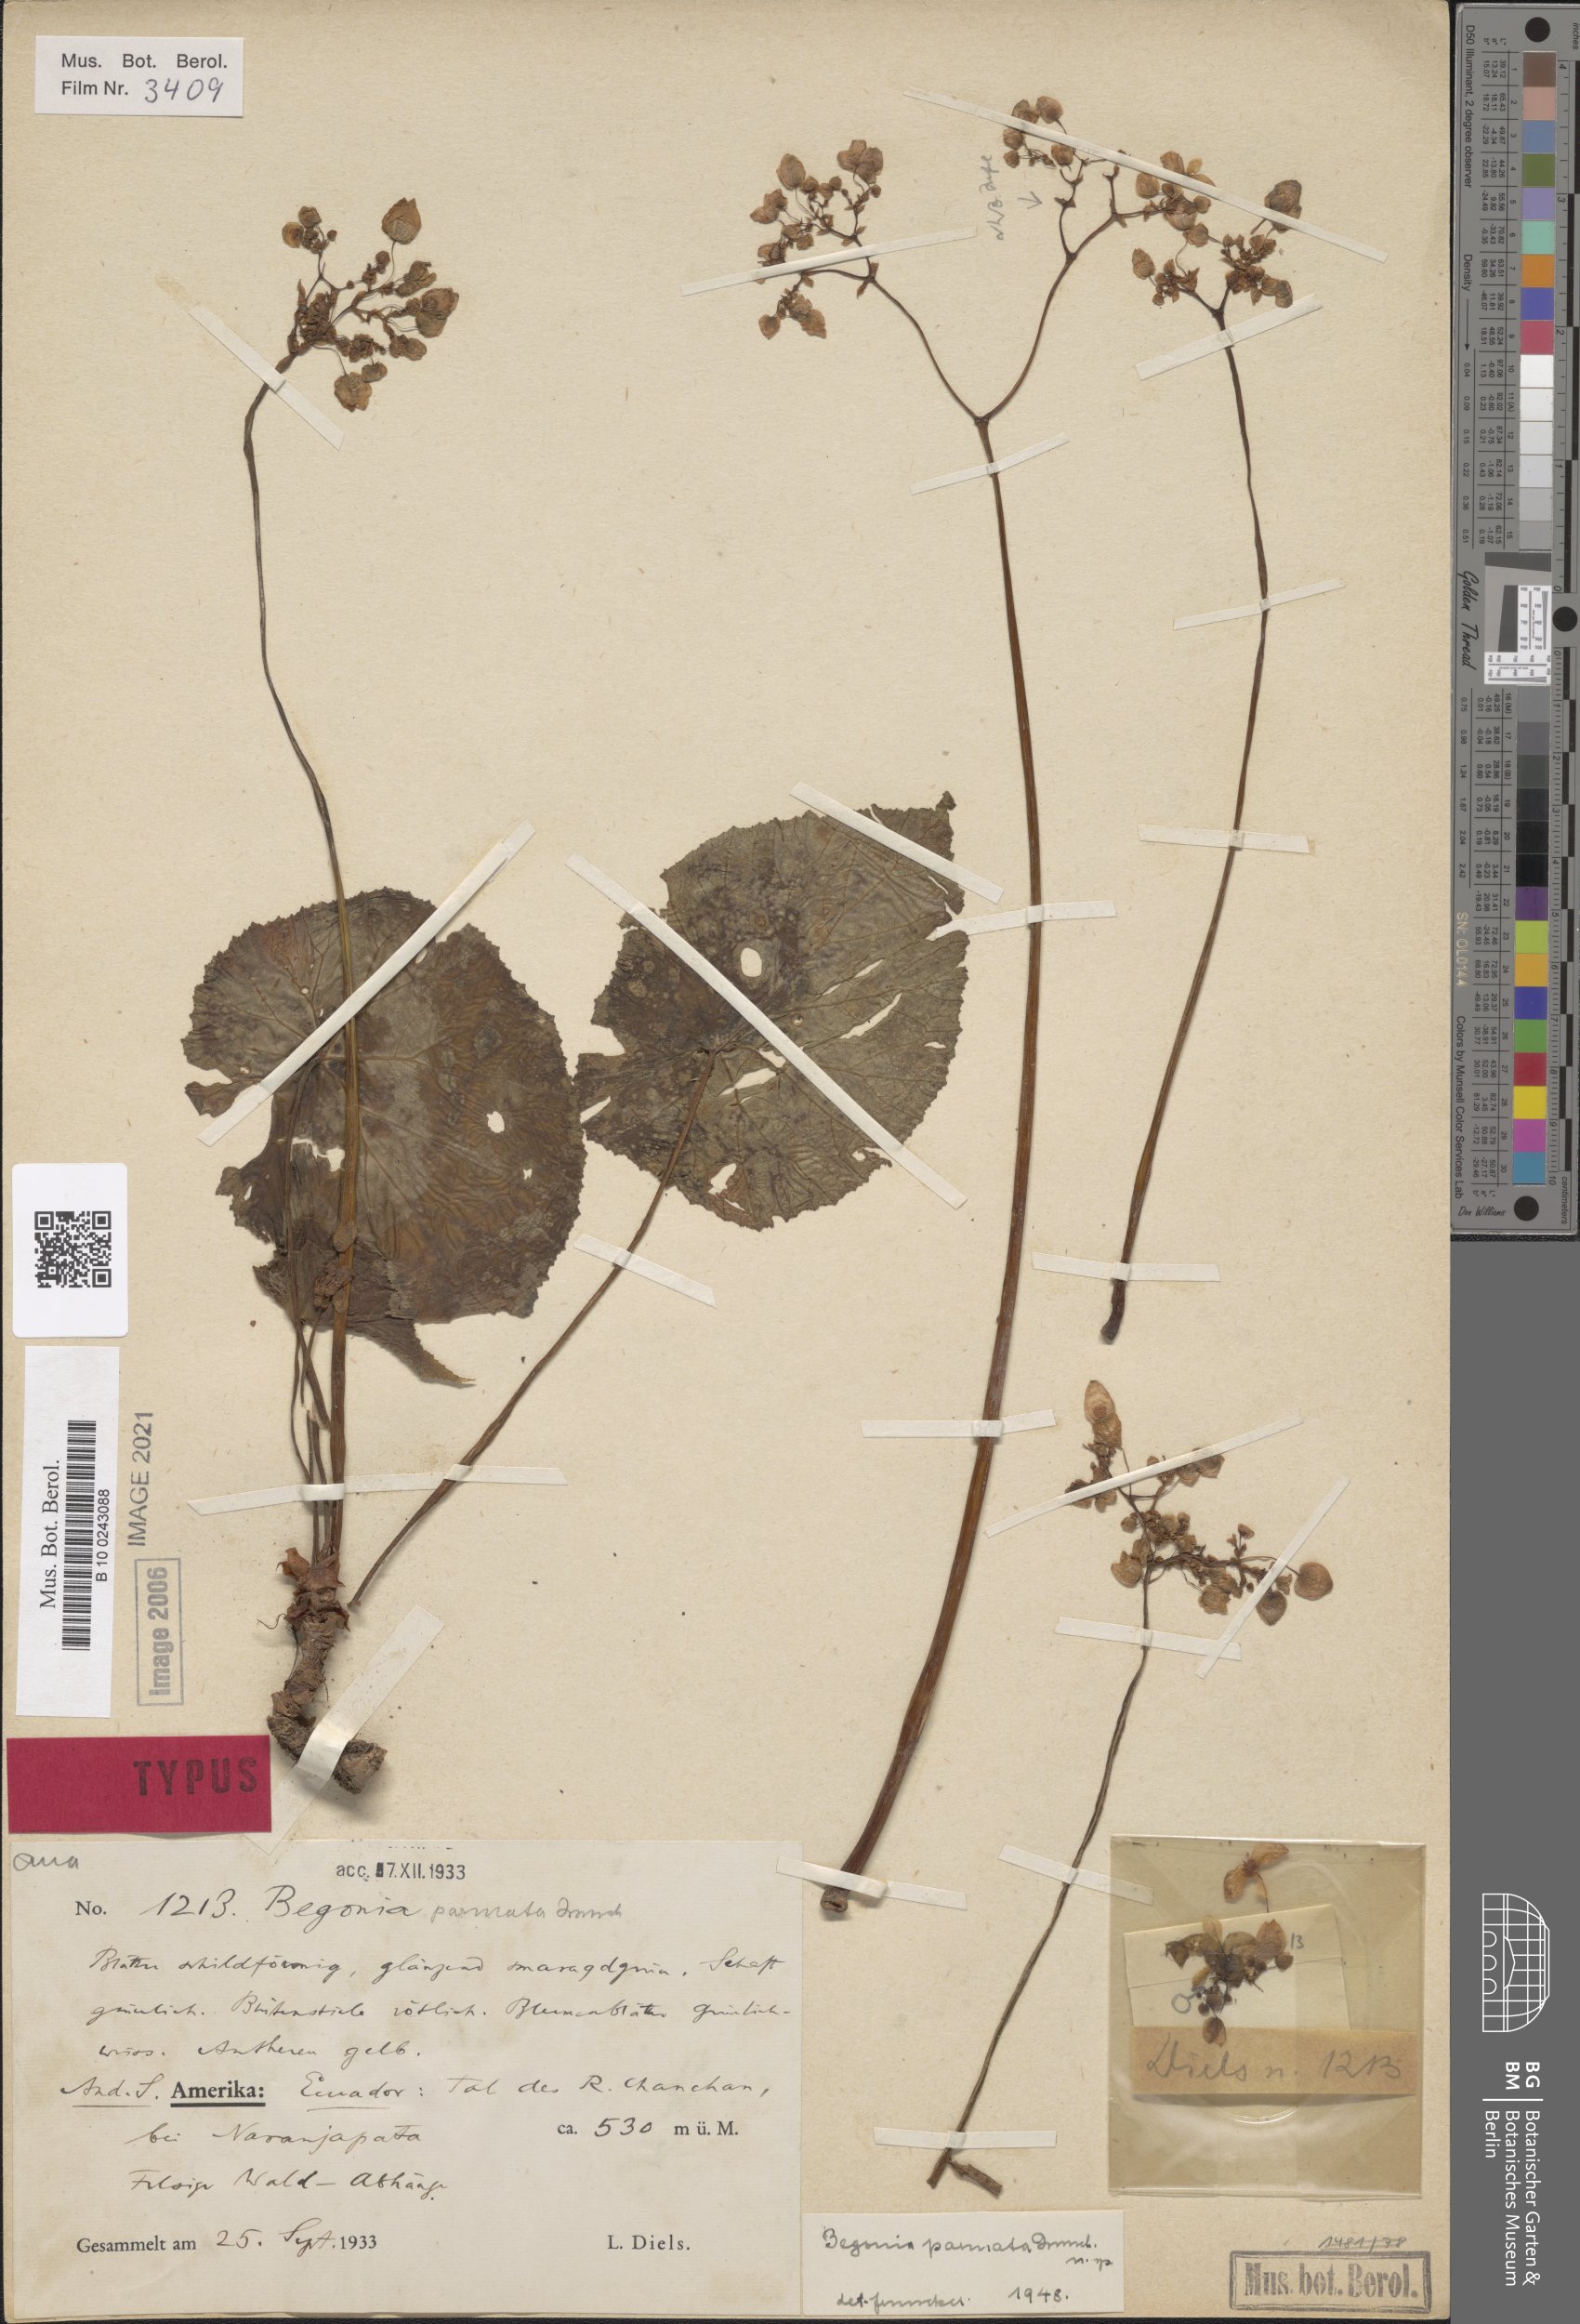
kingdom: Plantae
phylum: Tracheophyta
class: Magnoliopsida
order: Cucurbitales
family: Begoniaceae
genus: Begonia
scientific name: Begonia serotina
